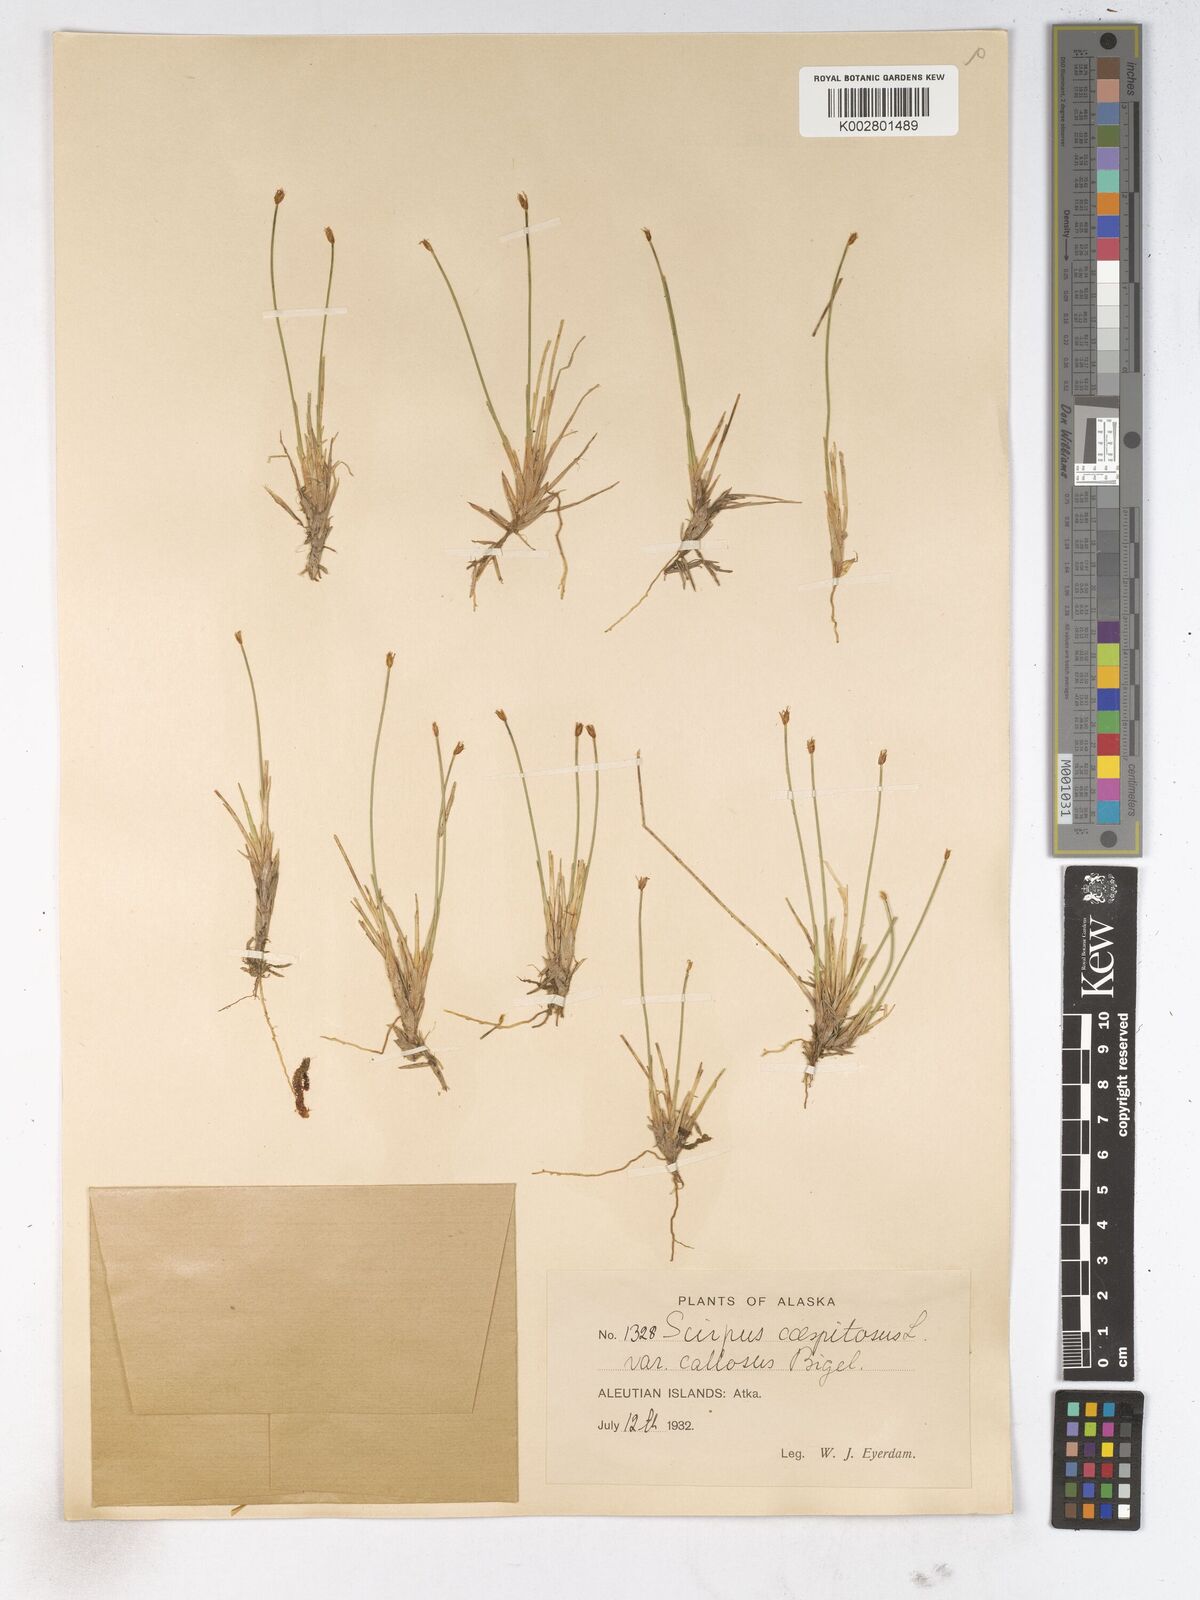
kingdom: Plantae
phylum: Tracheophyta
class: Liliopsida
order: Poales
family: Cyperaceae
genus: Trichophorum
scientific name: Trichophorum cespitosum
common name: Cespitose bulrush
